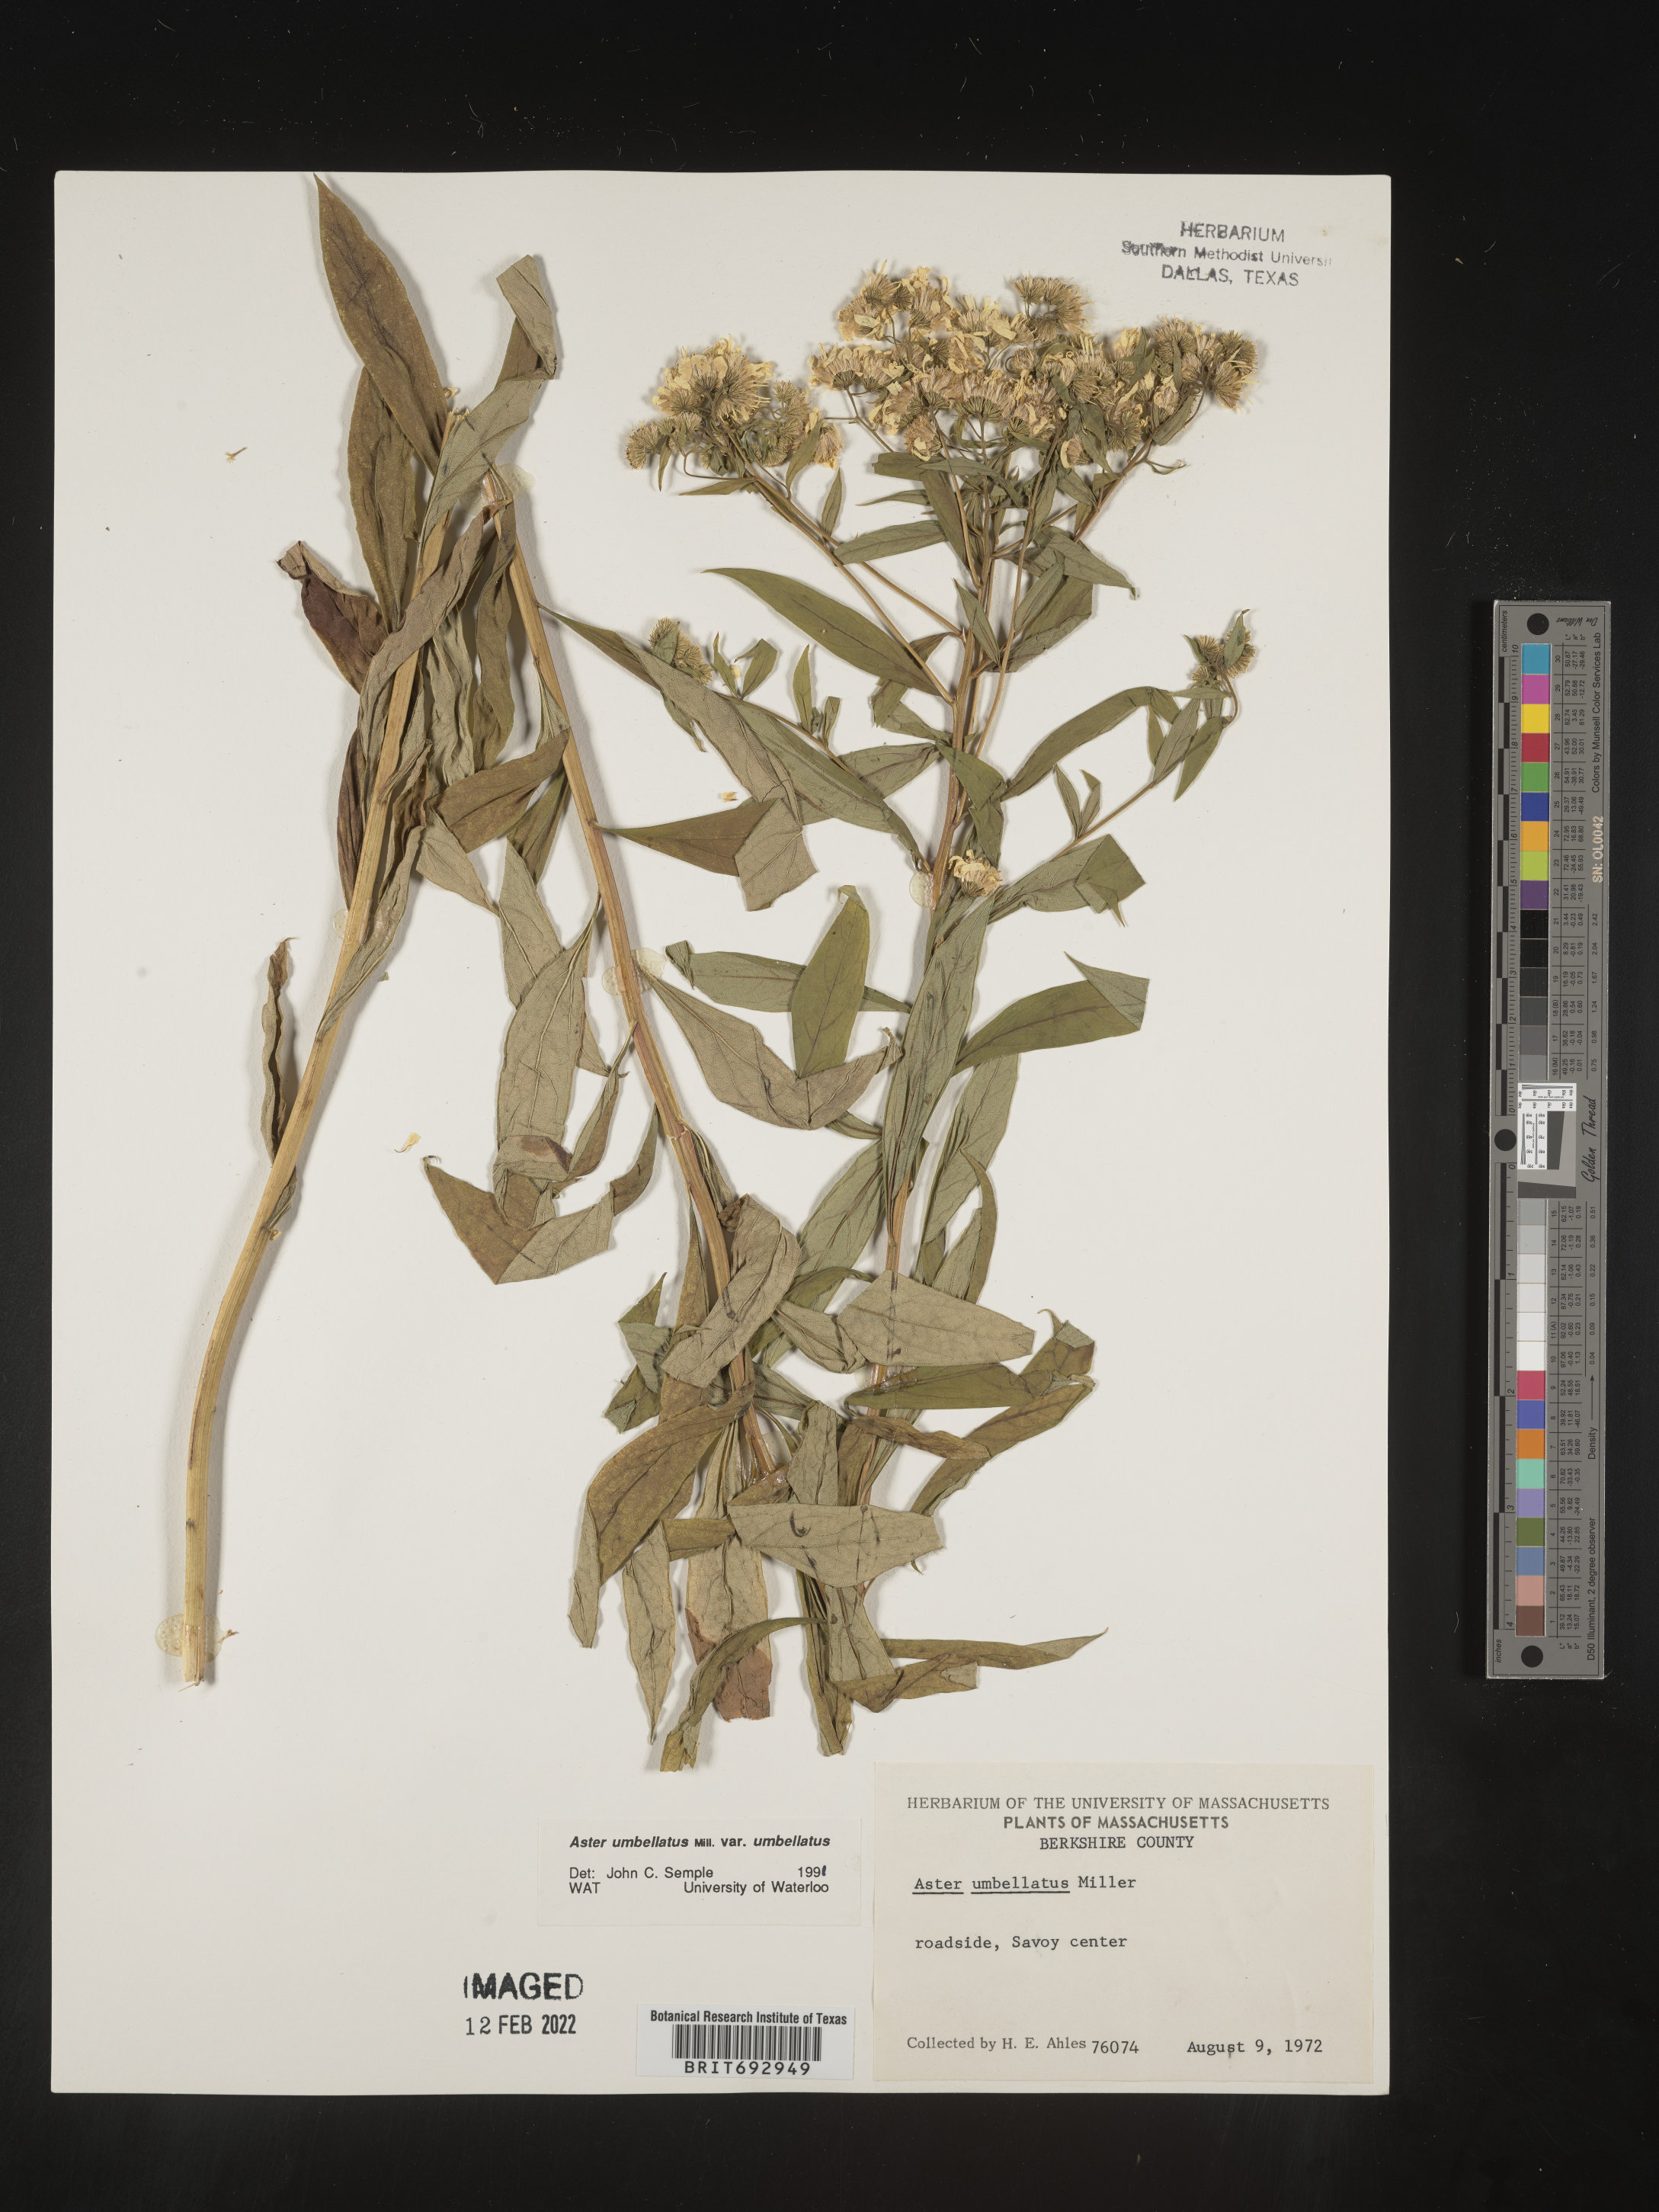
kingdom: Plantae
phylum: Tracheophyta
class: Magnoliopsida
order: Asterales
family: Asteraceae
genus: Doellingeria
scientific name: Doellingeria umbellata
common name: Flat-top white aster
